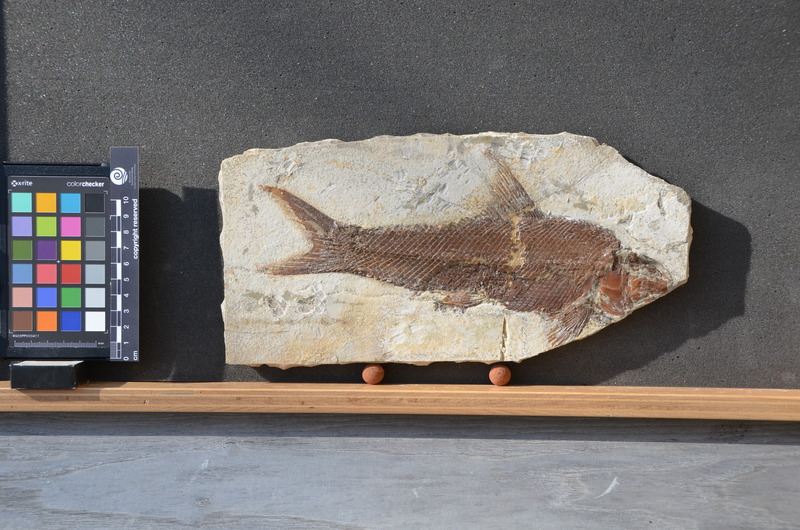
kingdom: Animalia
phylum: Chordata
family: Ophiopsiellidae
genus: Ophiopsiella
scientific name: Ophiopsiella procera
